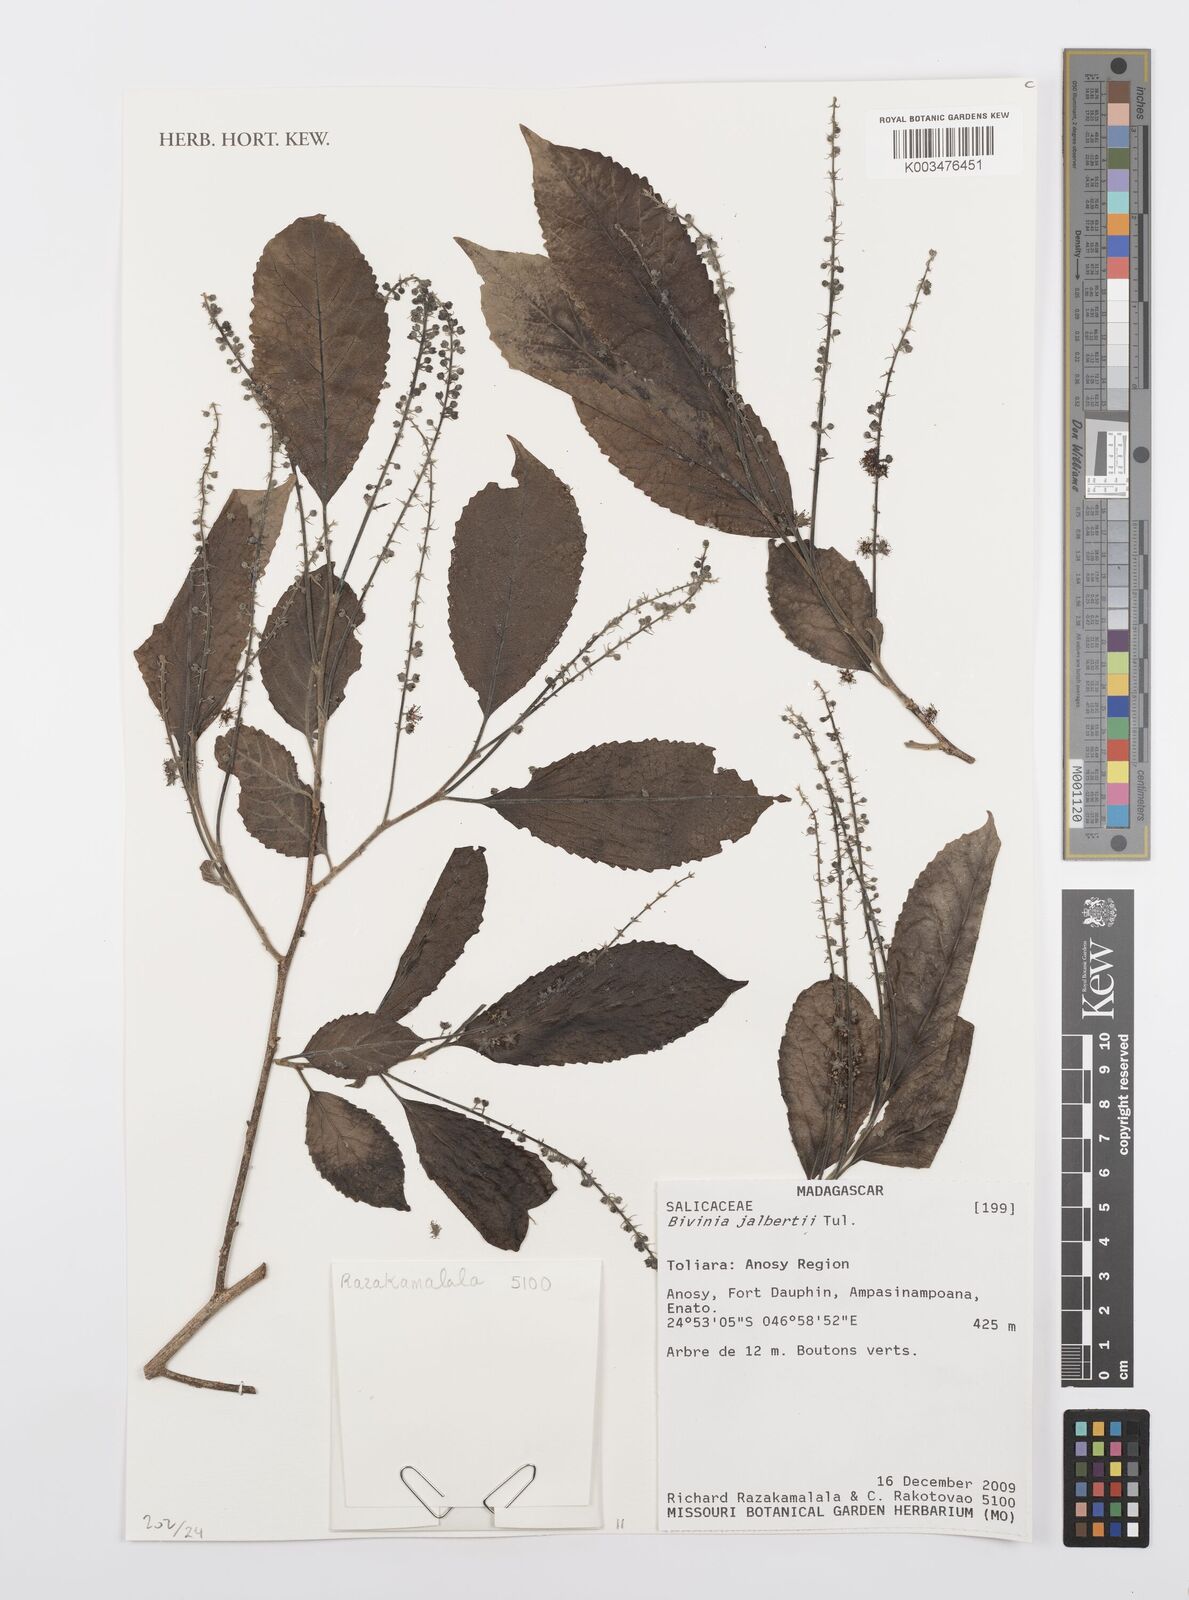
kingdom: Plantae
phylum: Tracheophyta
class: Magnoliopsida
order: Malpighiales
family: Salicaceae
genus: Bivinia
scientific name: Bivinia jalbertii
